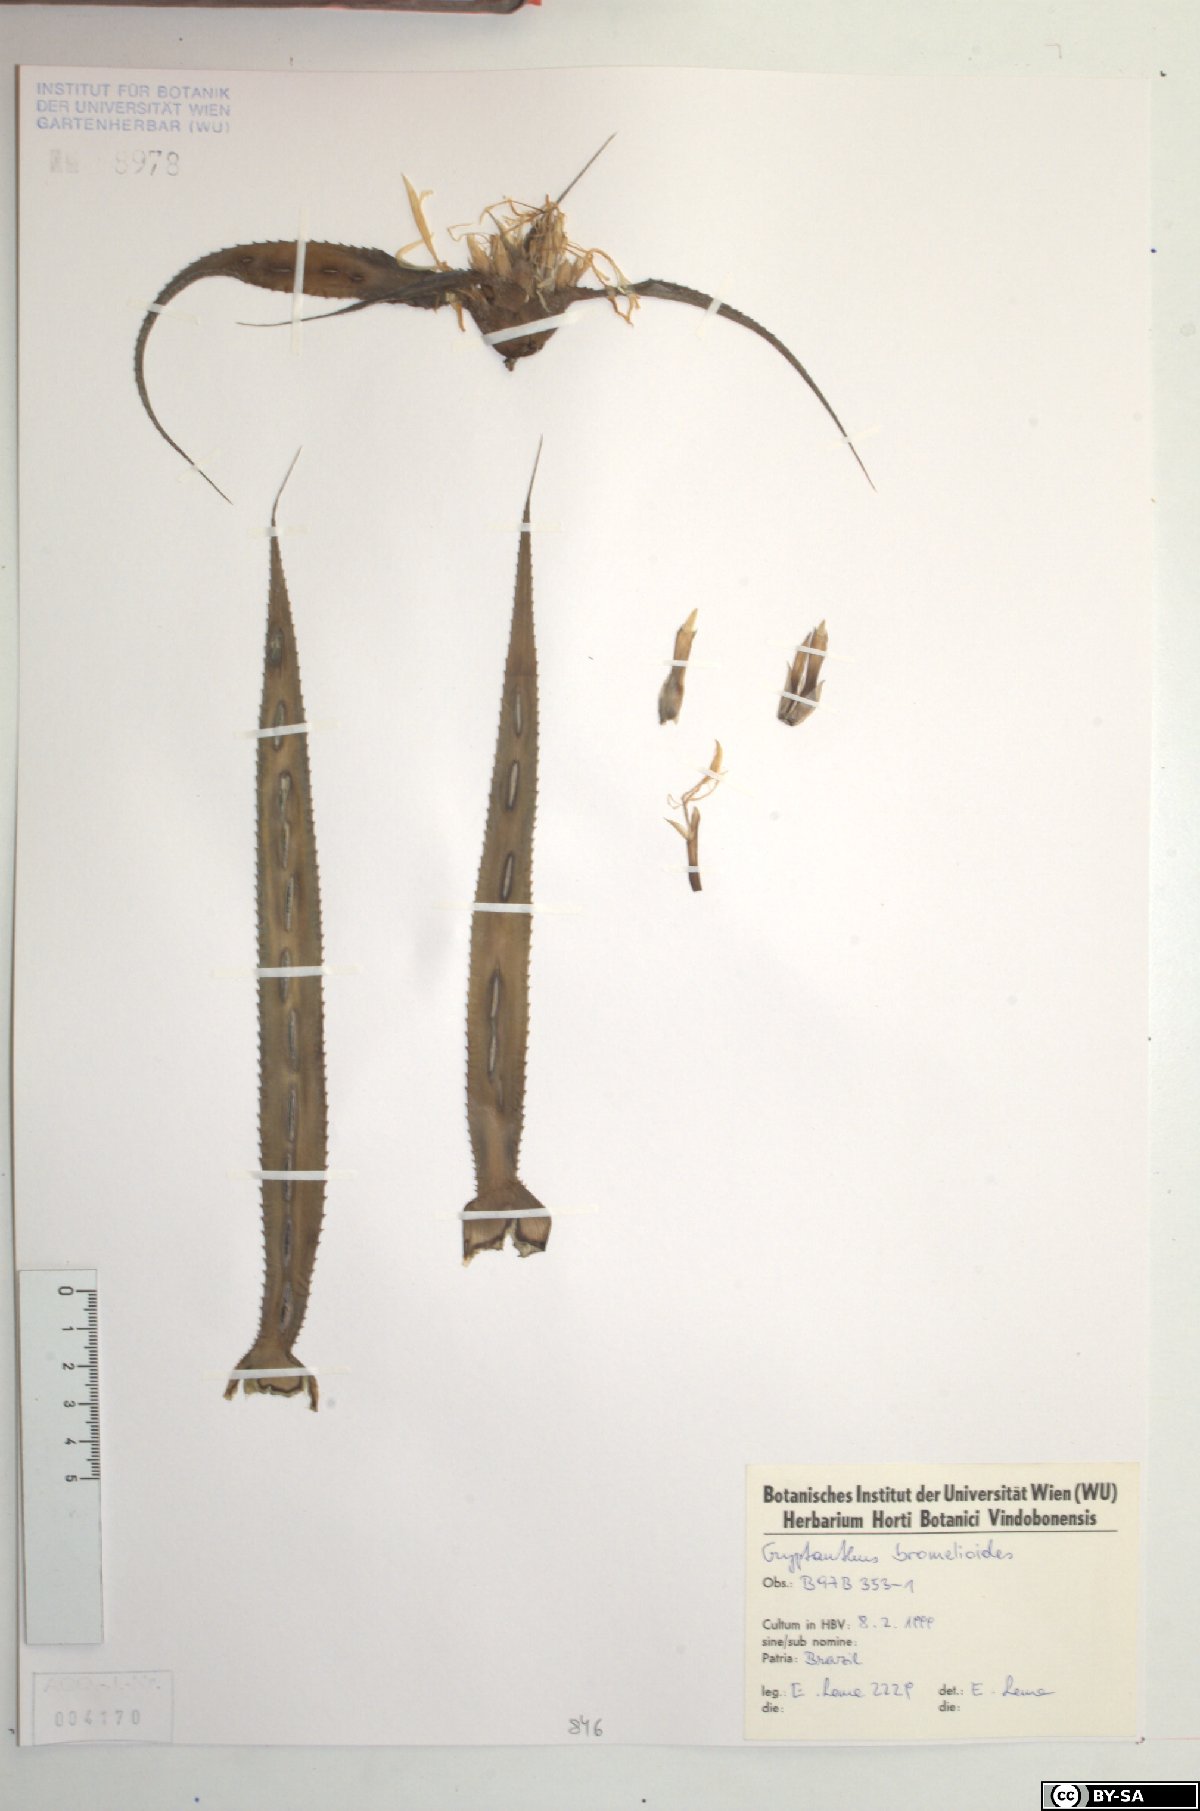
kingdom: Plantae
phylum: Tracheophyta
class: Liliopsida
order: Poales
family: Bromeliaceae
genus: Cryptanthus
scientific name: Cryptanthus bromelioides
